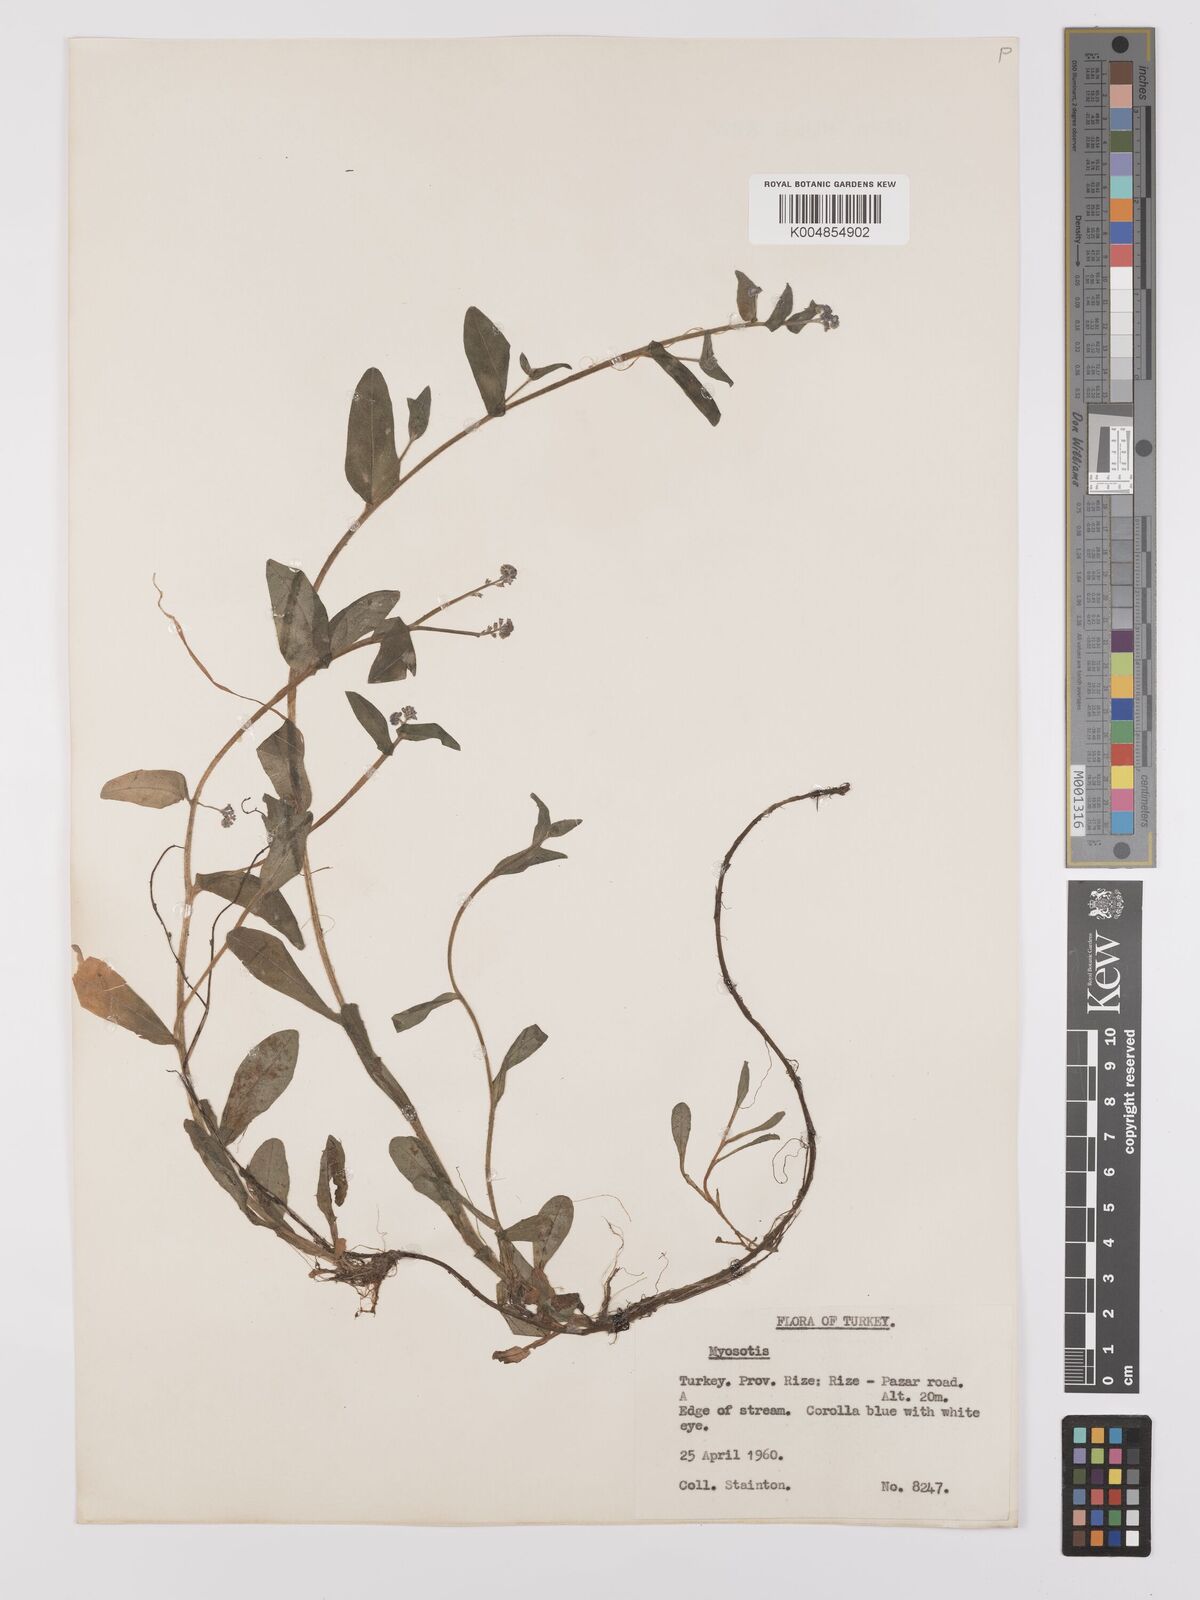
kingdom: Plantae
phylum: Tracheophyta
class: Magnoliopsida
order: Boraginales
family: Boraginaceae
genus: Myosotis
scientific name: Myosotis
